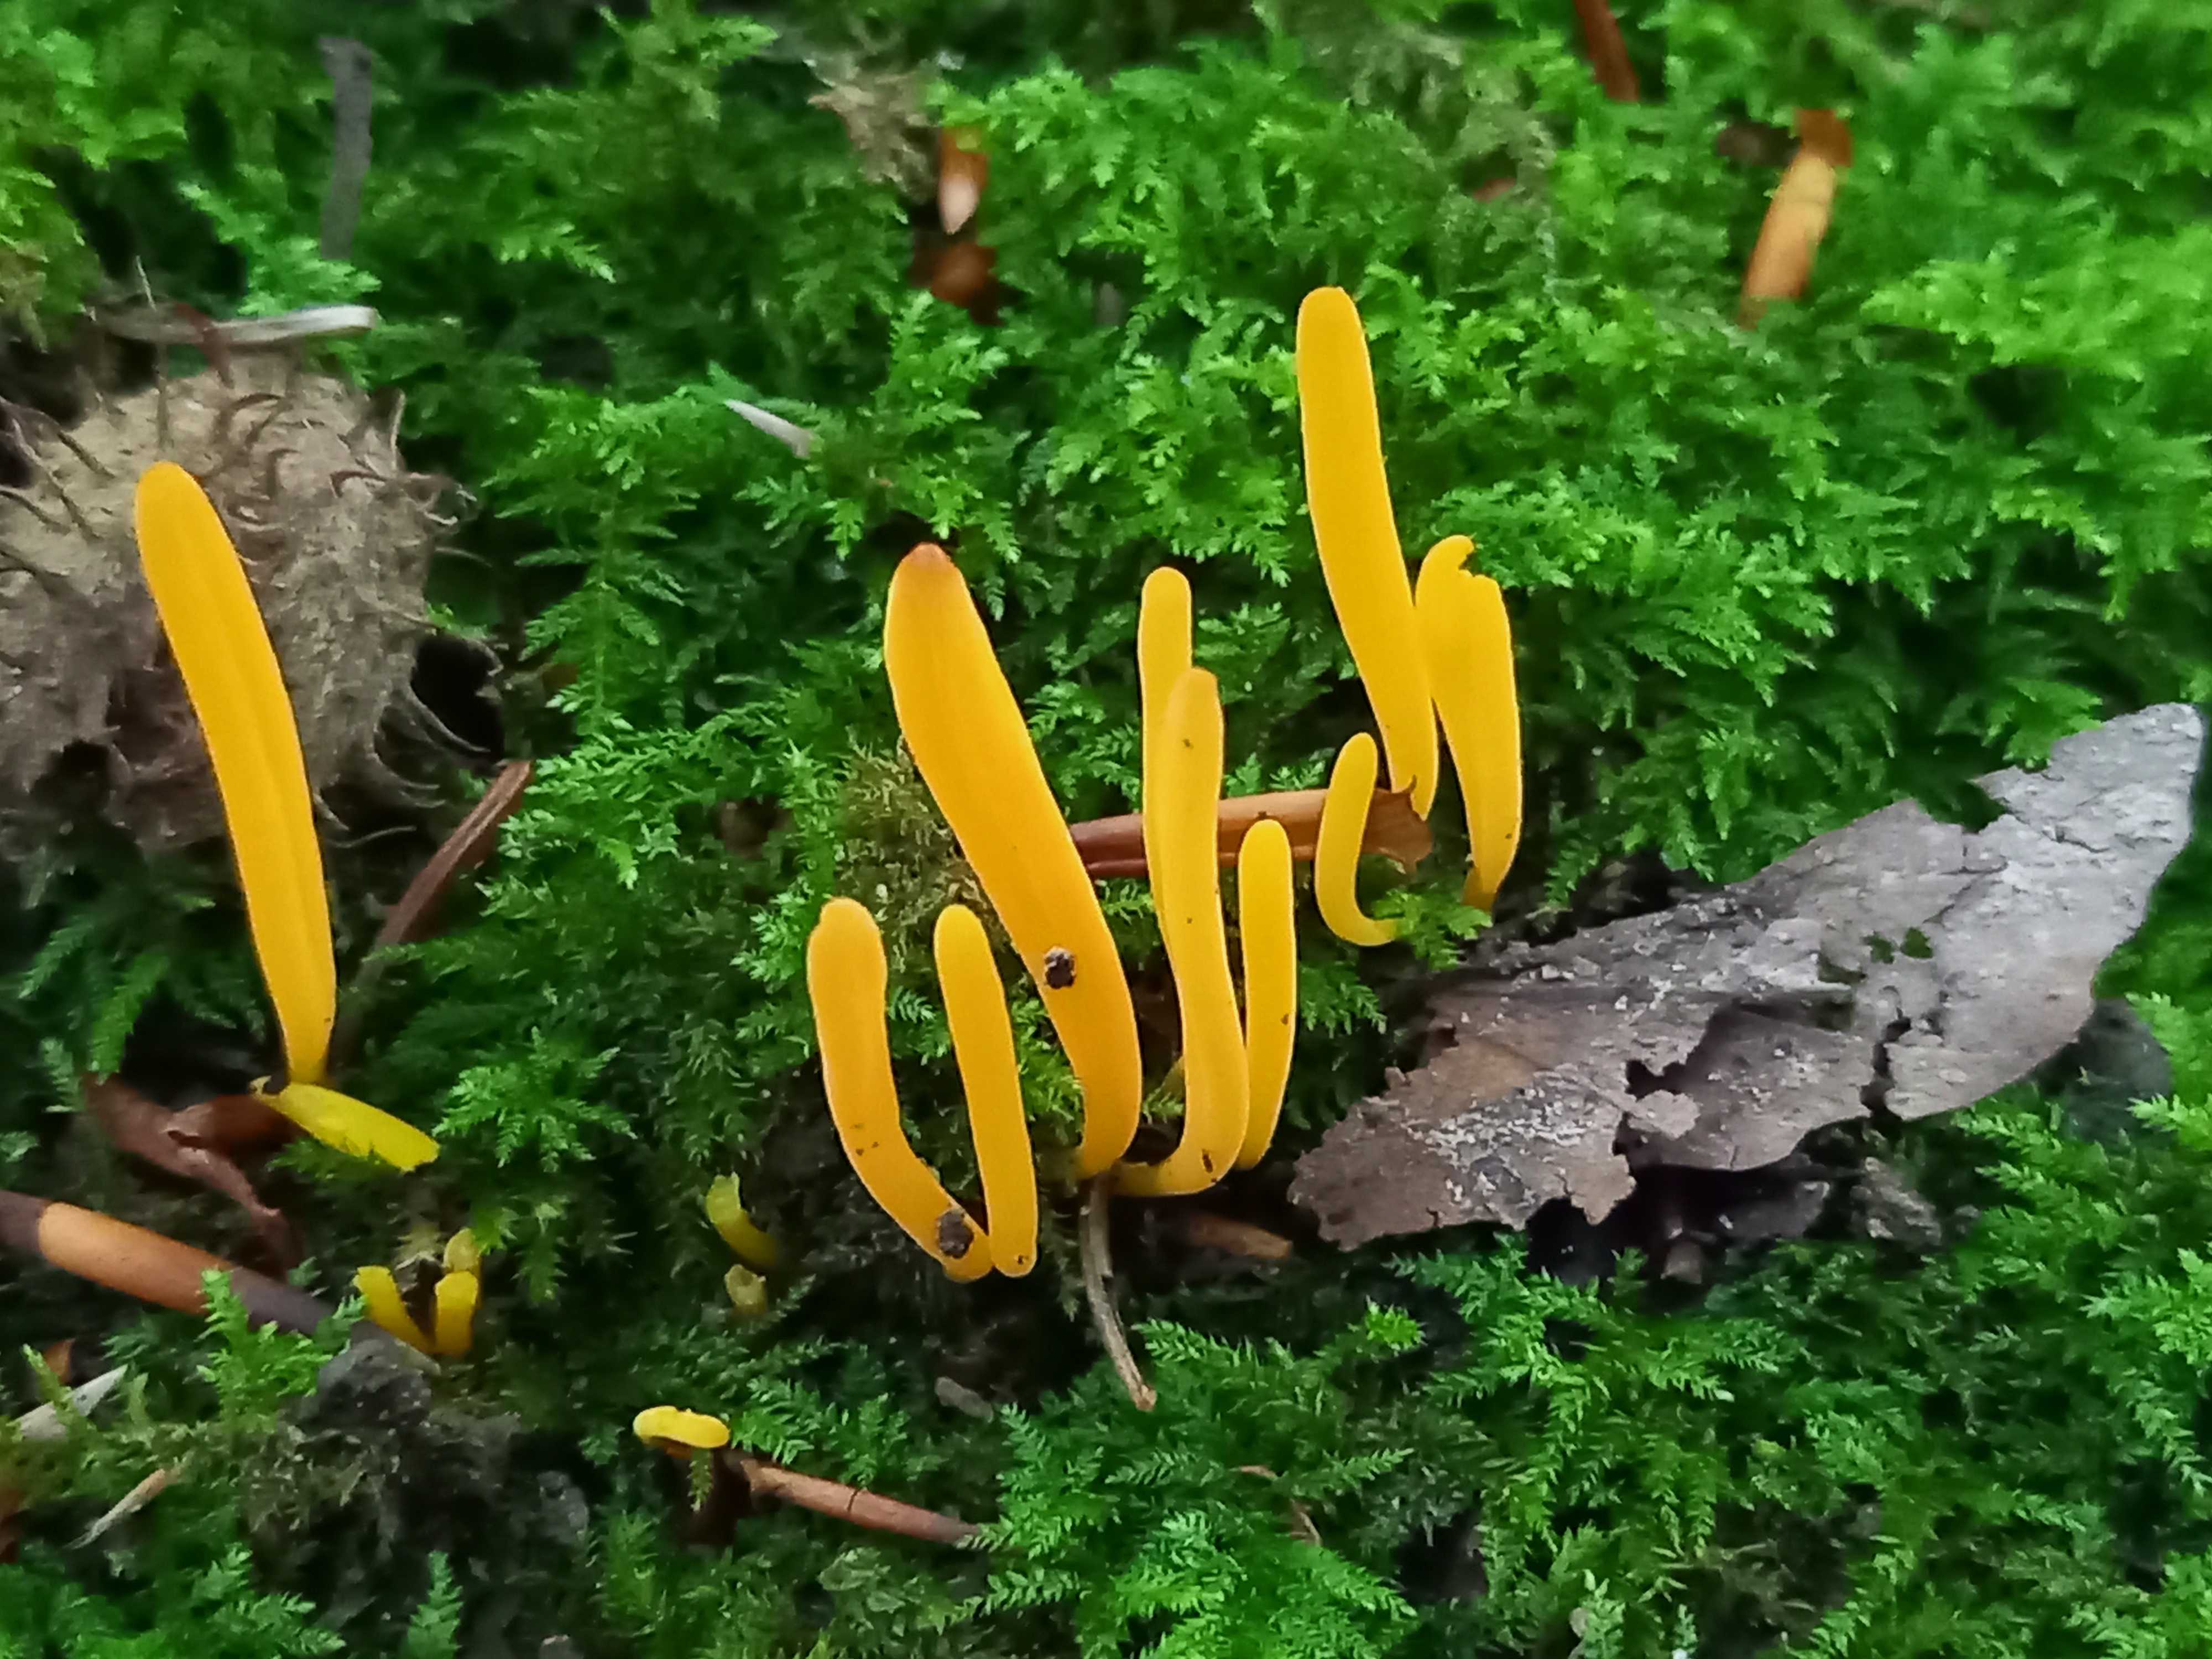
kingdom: Fungi
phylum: Basidiomycota
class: Agaricomycetes
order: Agaricales
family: Clavariaceae
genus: Clavulinopsis
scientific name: Clavulinopsis
